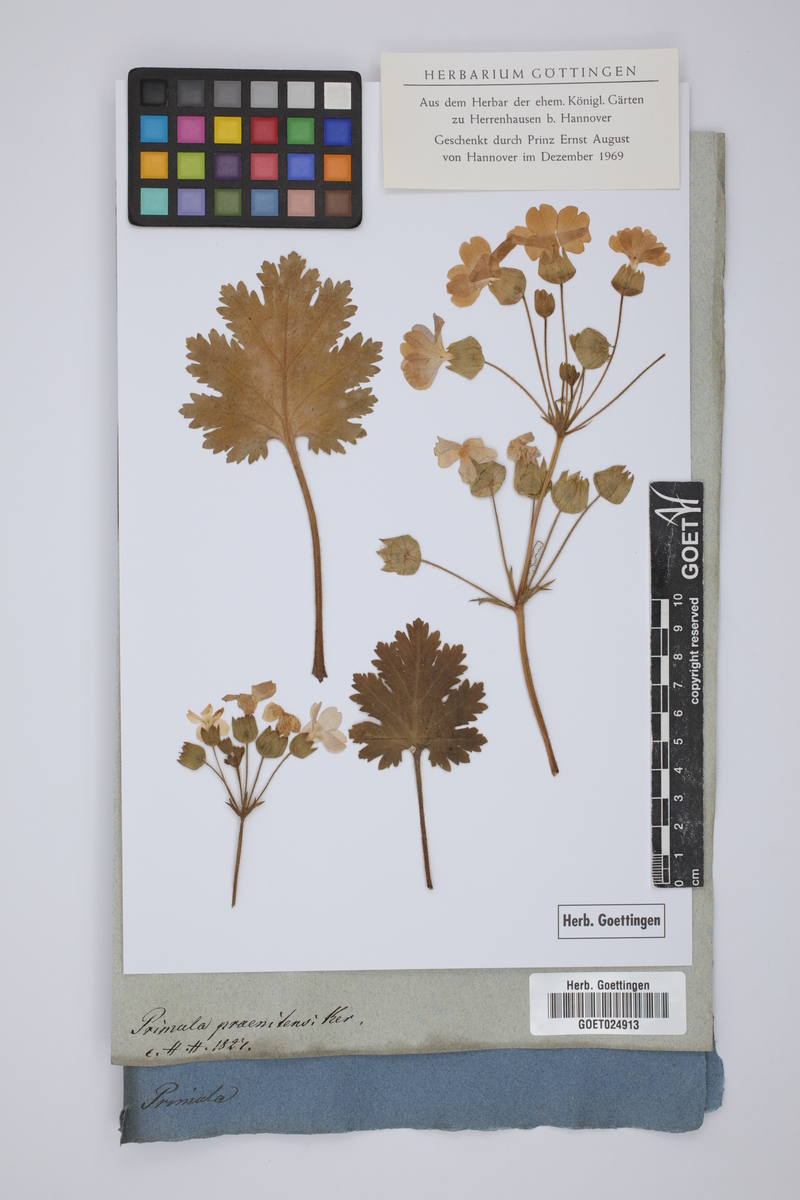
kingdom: Plantae
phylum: Tracheophyta
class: Magnoliopsida
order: Ericales
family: Primulaceae
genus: Primula
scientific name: Primula praenitens
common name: Chinese primrose
